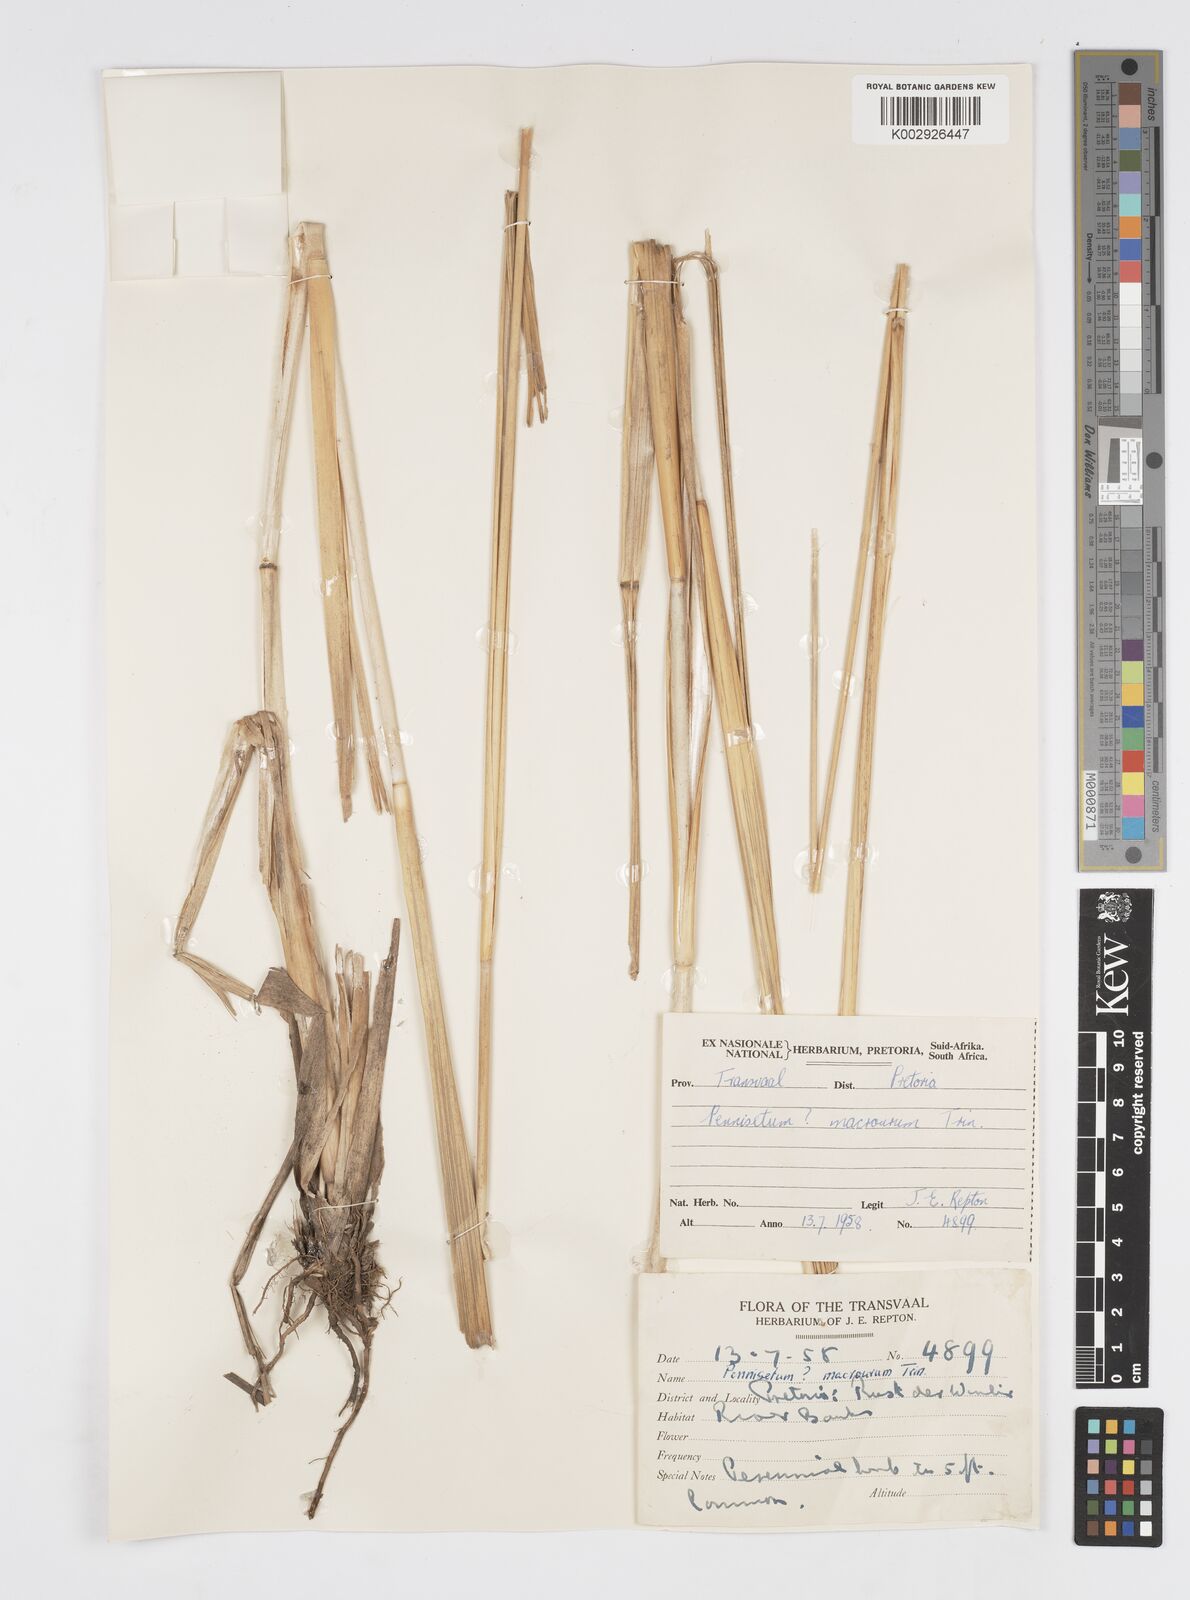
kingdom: Plantae
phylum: Tracheophyta
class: Liliopsida
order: Poales
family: Poaceae
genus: Cenchrus
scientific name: Cenchrus caudatus
